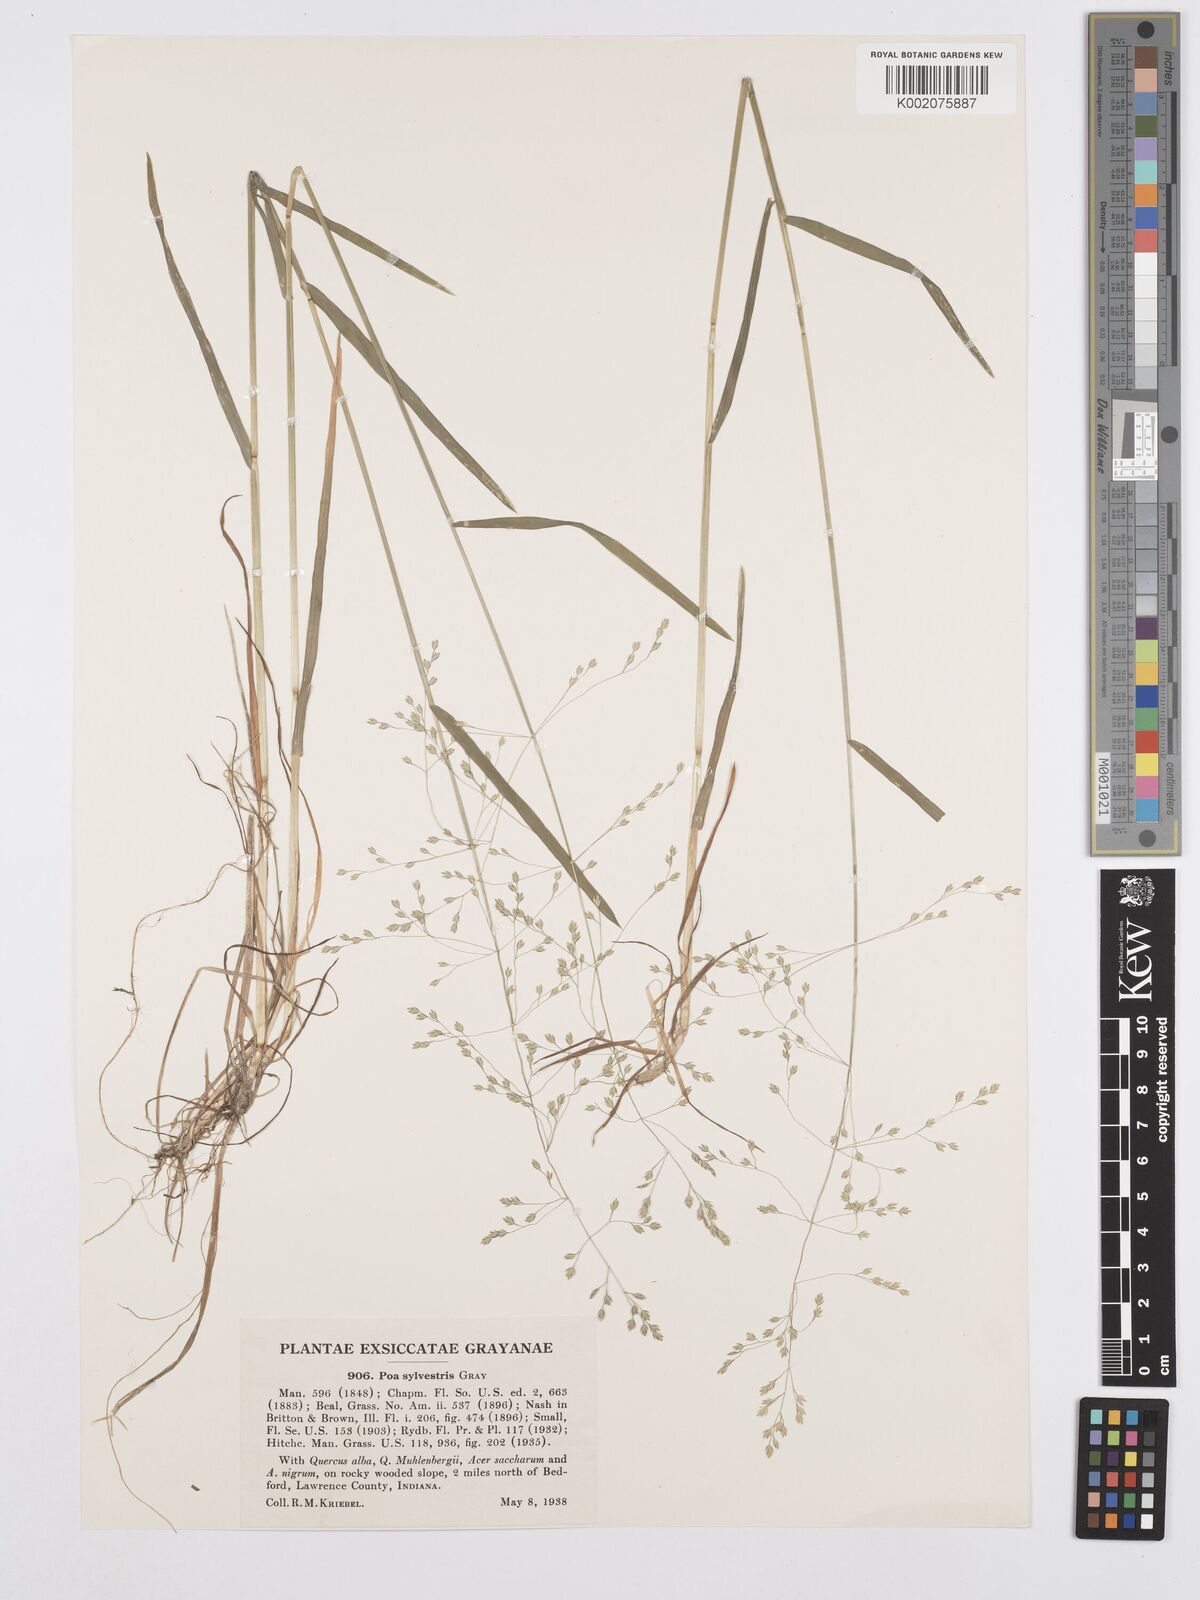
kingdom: Plantae
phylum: Tracheophyta
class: Liliopsida
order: Poales
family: Poaceae
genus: Poa
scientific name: Poa sylvestris
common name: North american woodland bluegrass
